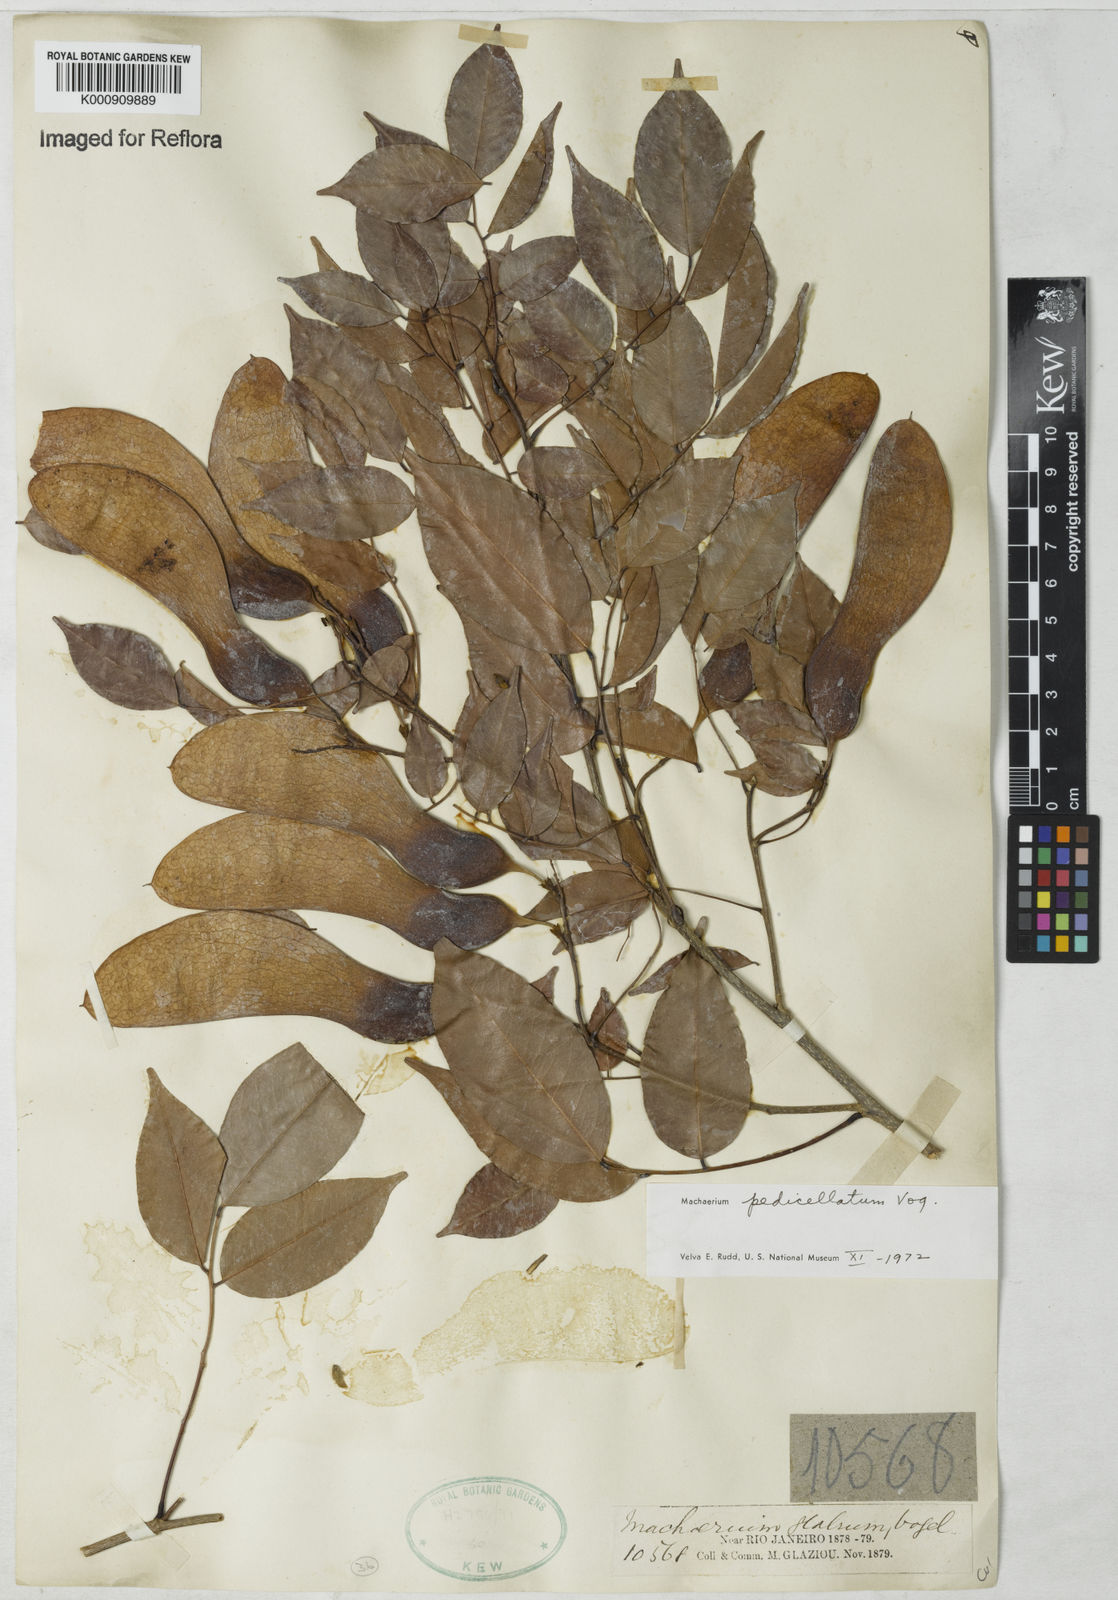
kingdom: Plantae
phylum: Tracheophyta
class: Magnoliopsida
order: Fabales
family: Fabaceae
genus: Machaerium
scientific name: Machaerium pedicellatum
